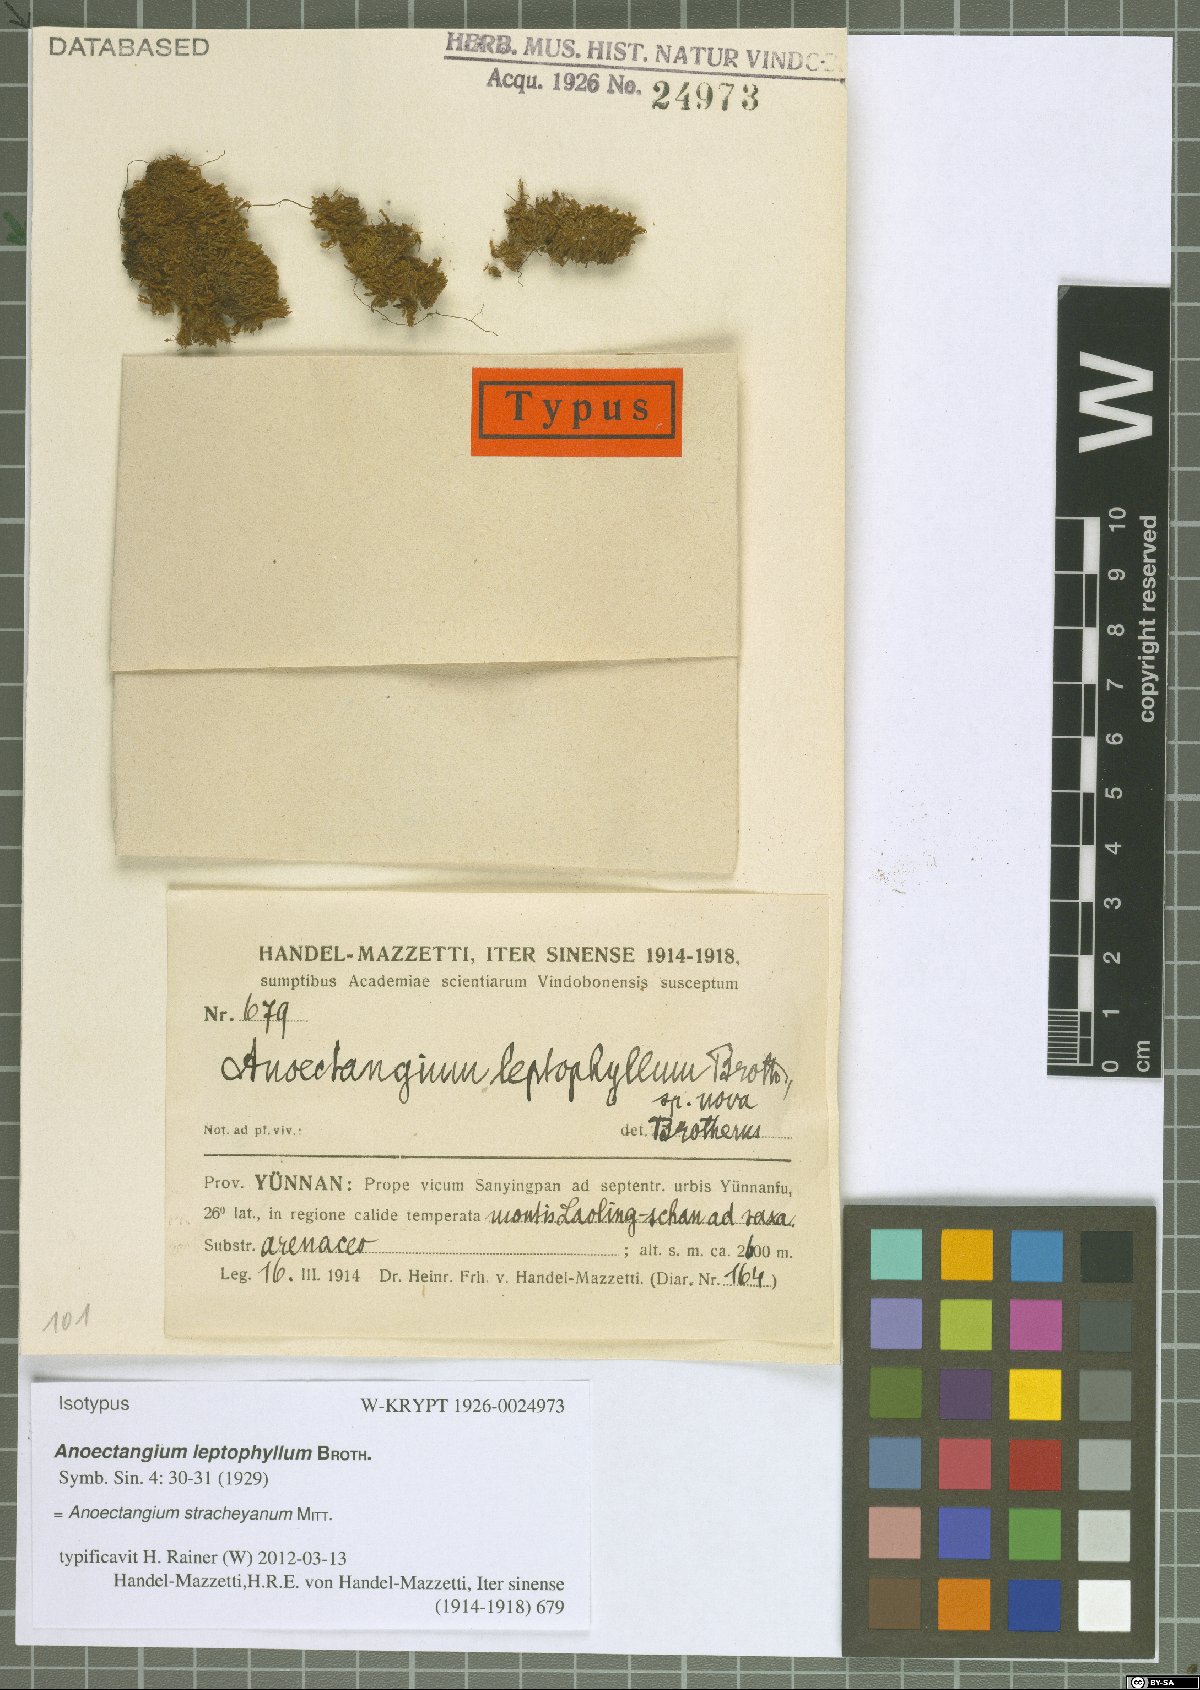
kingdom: Plantae
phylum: Bryophyta
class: Bryopsida
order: Pottiales
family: Pottiaceae
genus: Anoectangium
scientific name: Anoectangium stracheyanum
